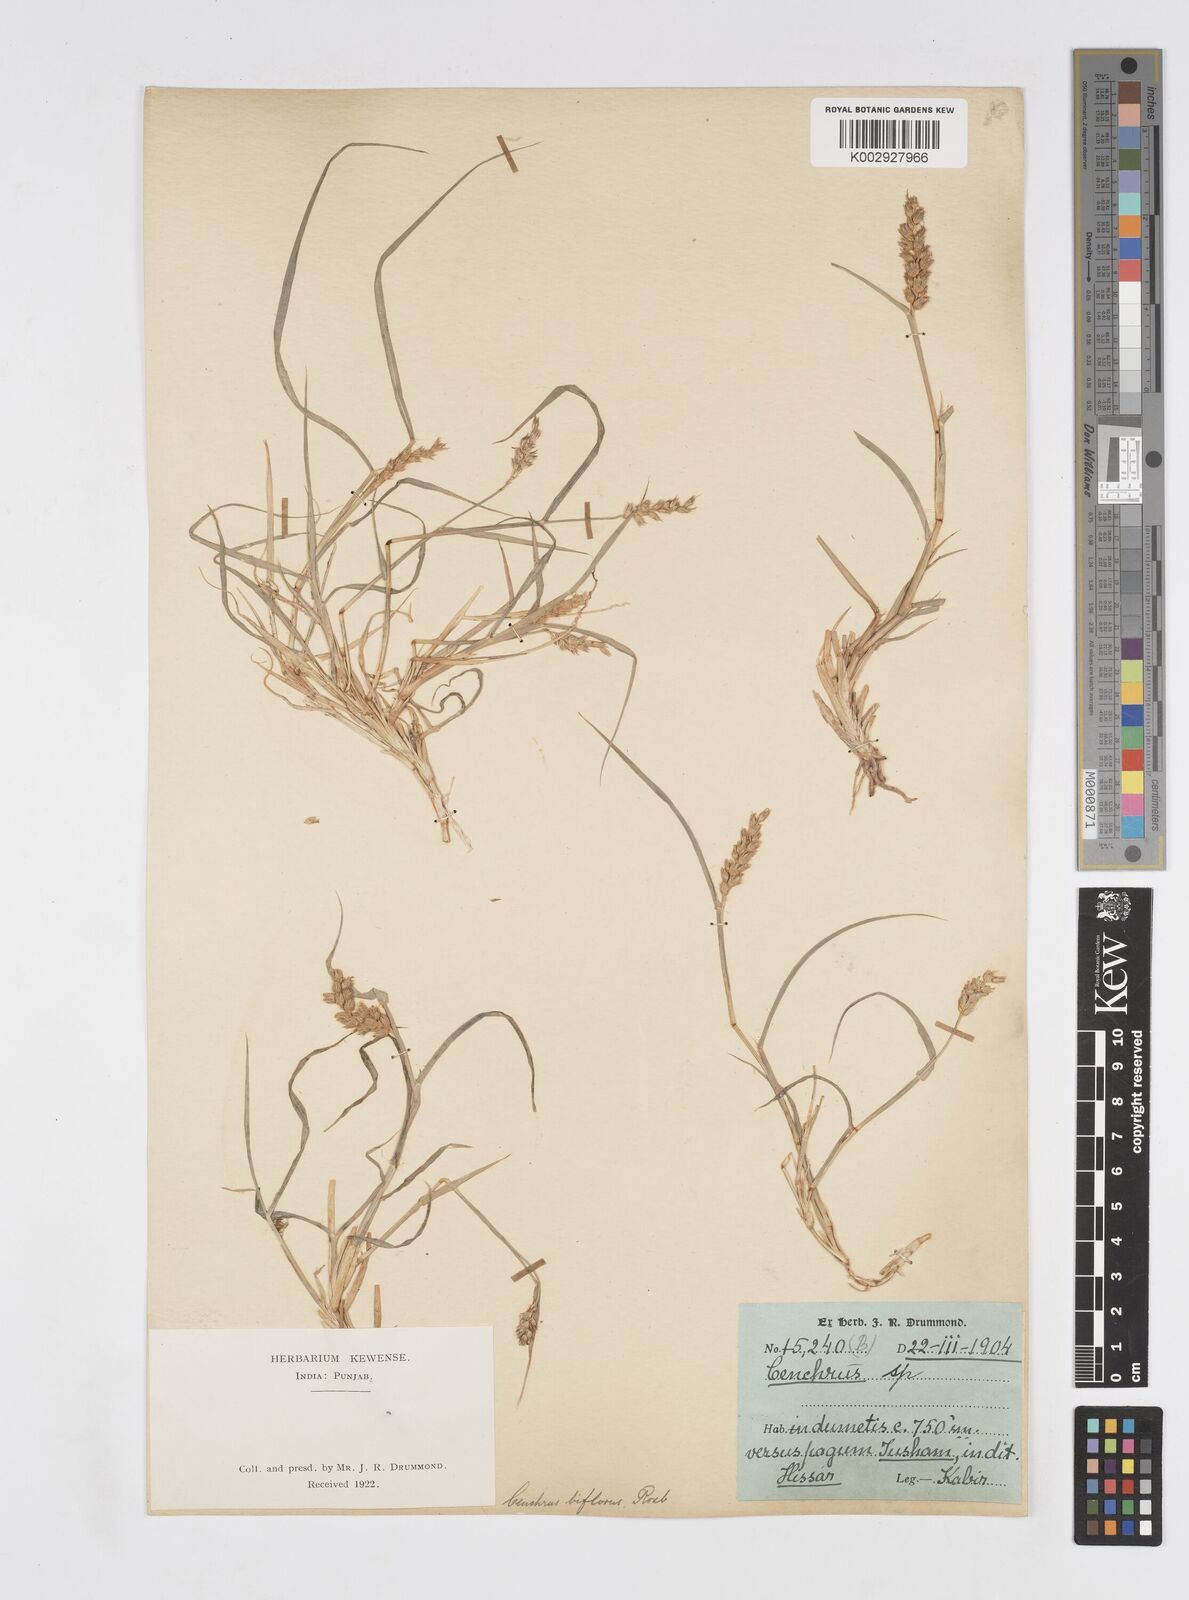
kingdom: Plantae
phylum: Tracheophyta
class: Liliopsida
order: Poales
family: Poaceae
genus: Cenchrus
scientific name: Cenchrus setigerus
